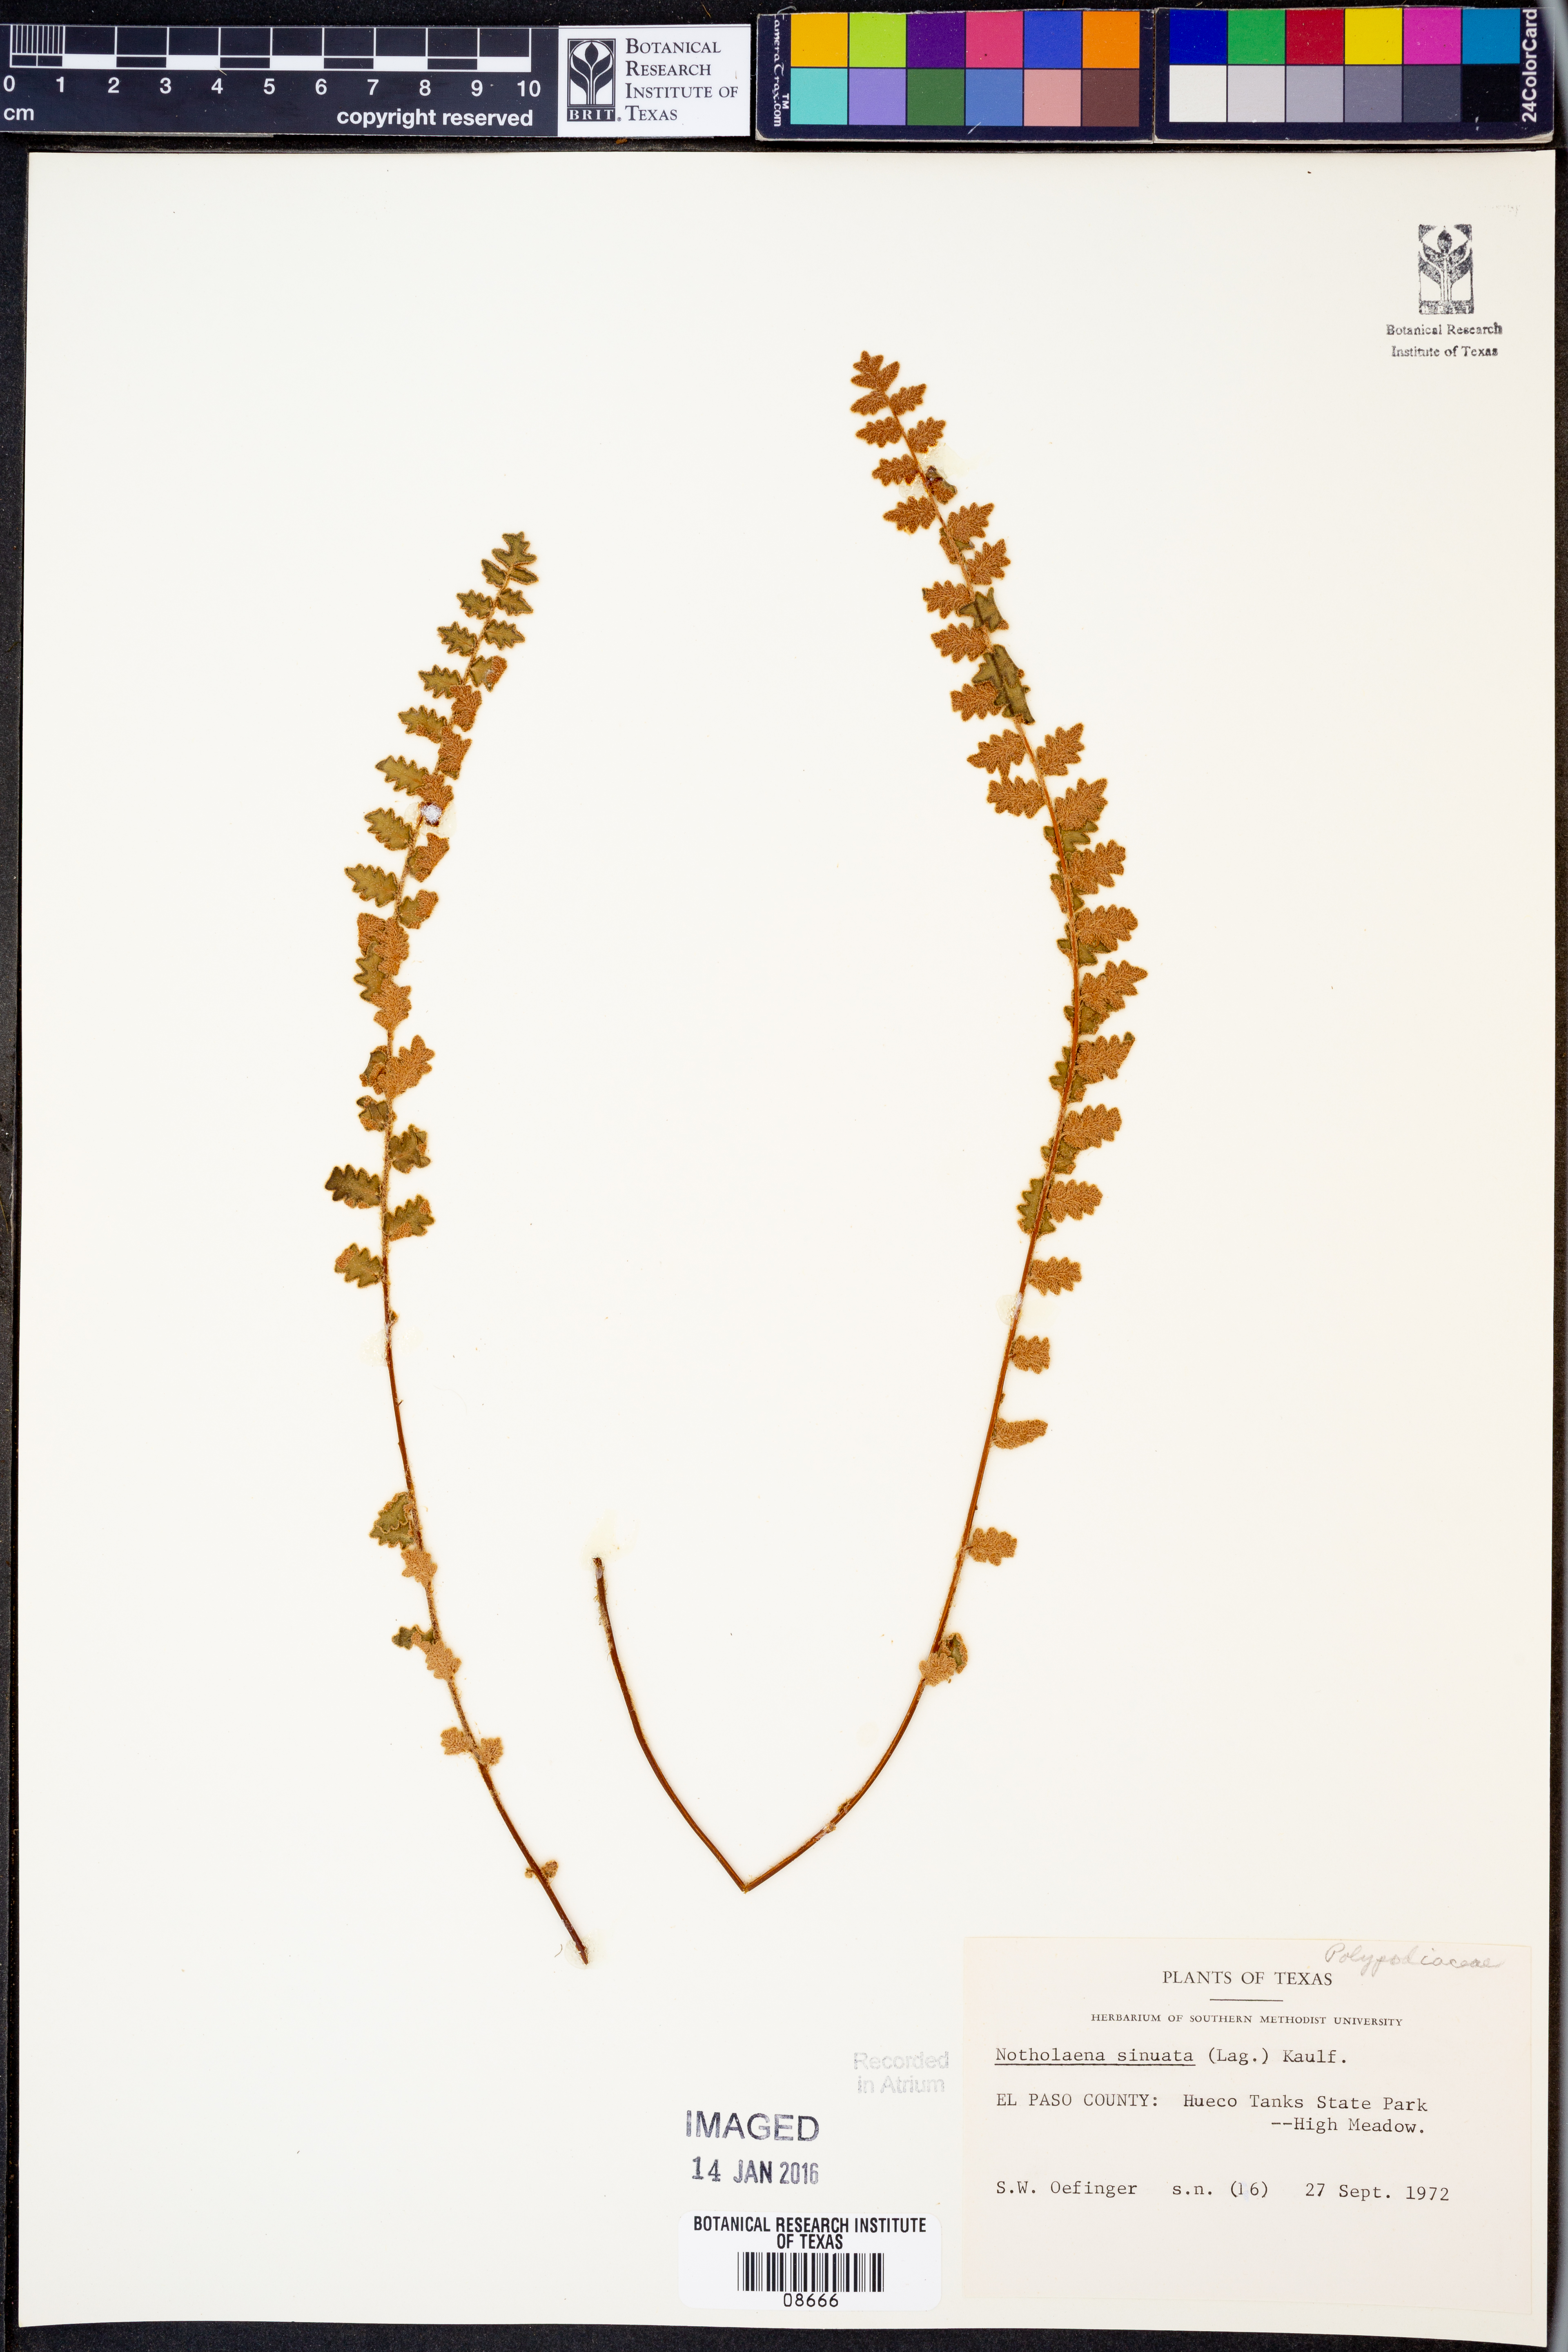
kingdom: Plantae
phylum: Tracheophyta
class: Polypodiopsida
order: Polypodiales
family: Pteridaceae
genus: Astrolepis
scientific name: Astrolepis sinuata
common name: Wavy scaly cloakfern
